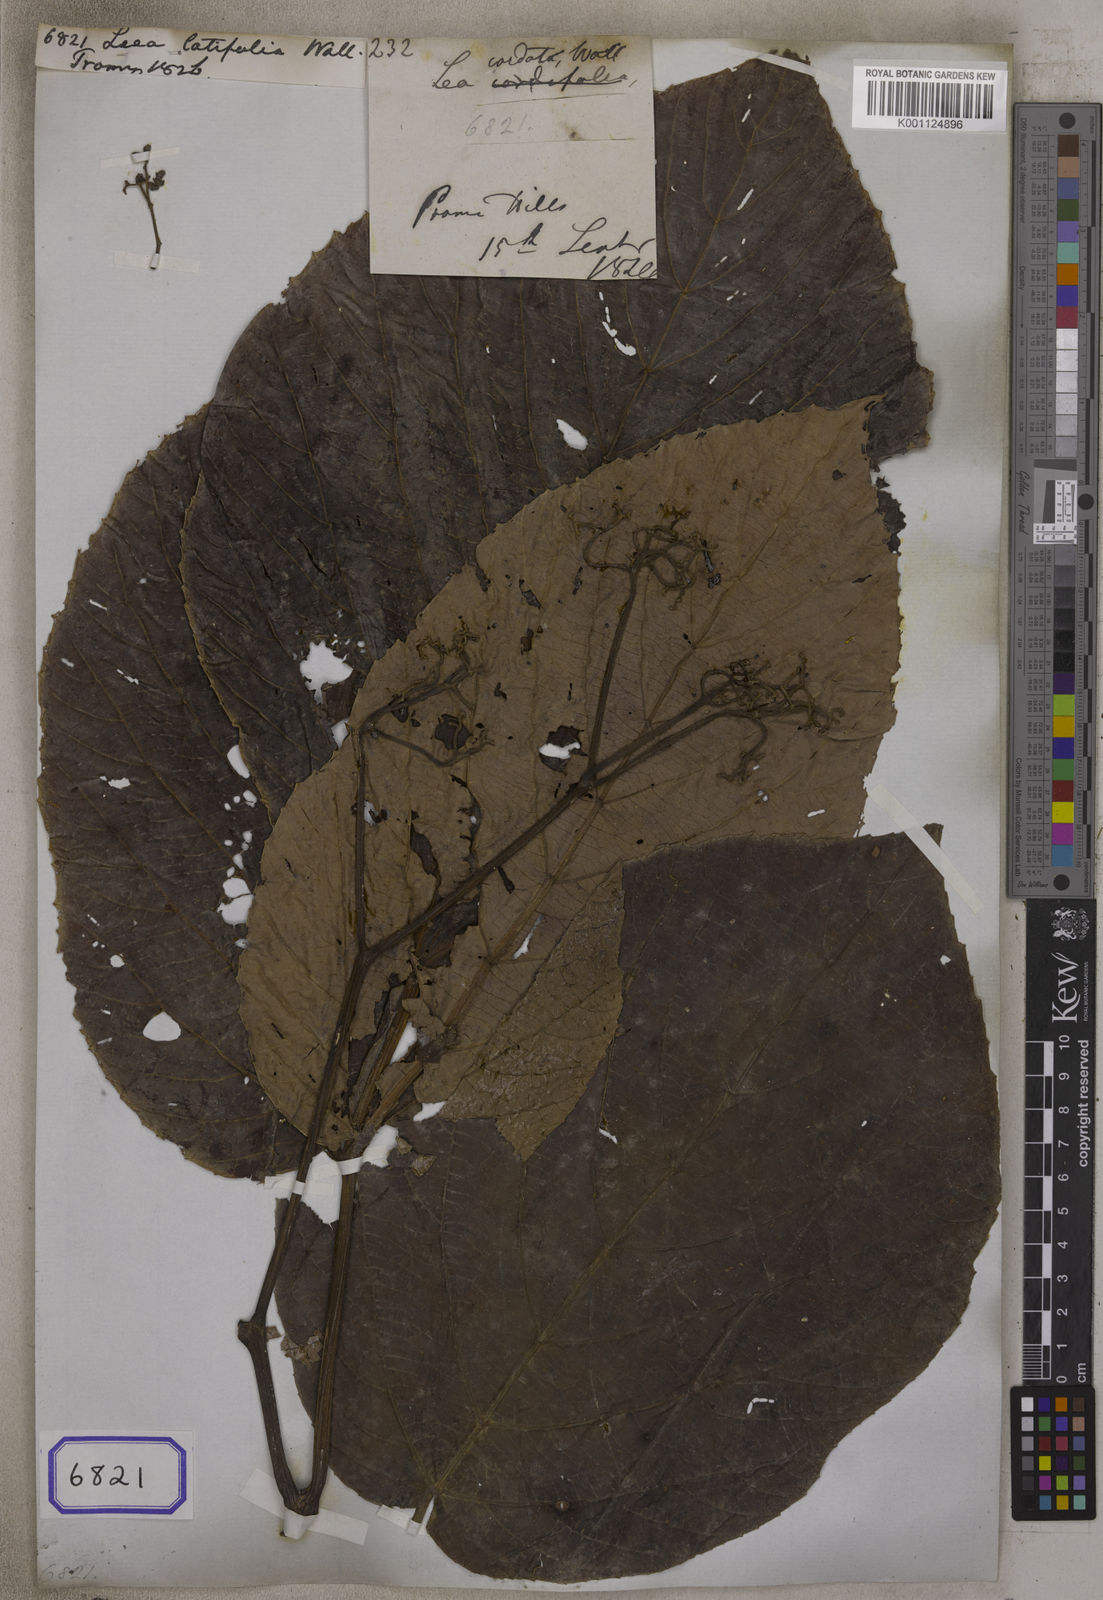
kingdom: Plantae
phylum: Tracheophyta
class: Magnoliopsida
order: Vitales
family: Vitaceae
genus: Leea
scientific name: Leea macrophylla
